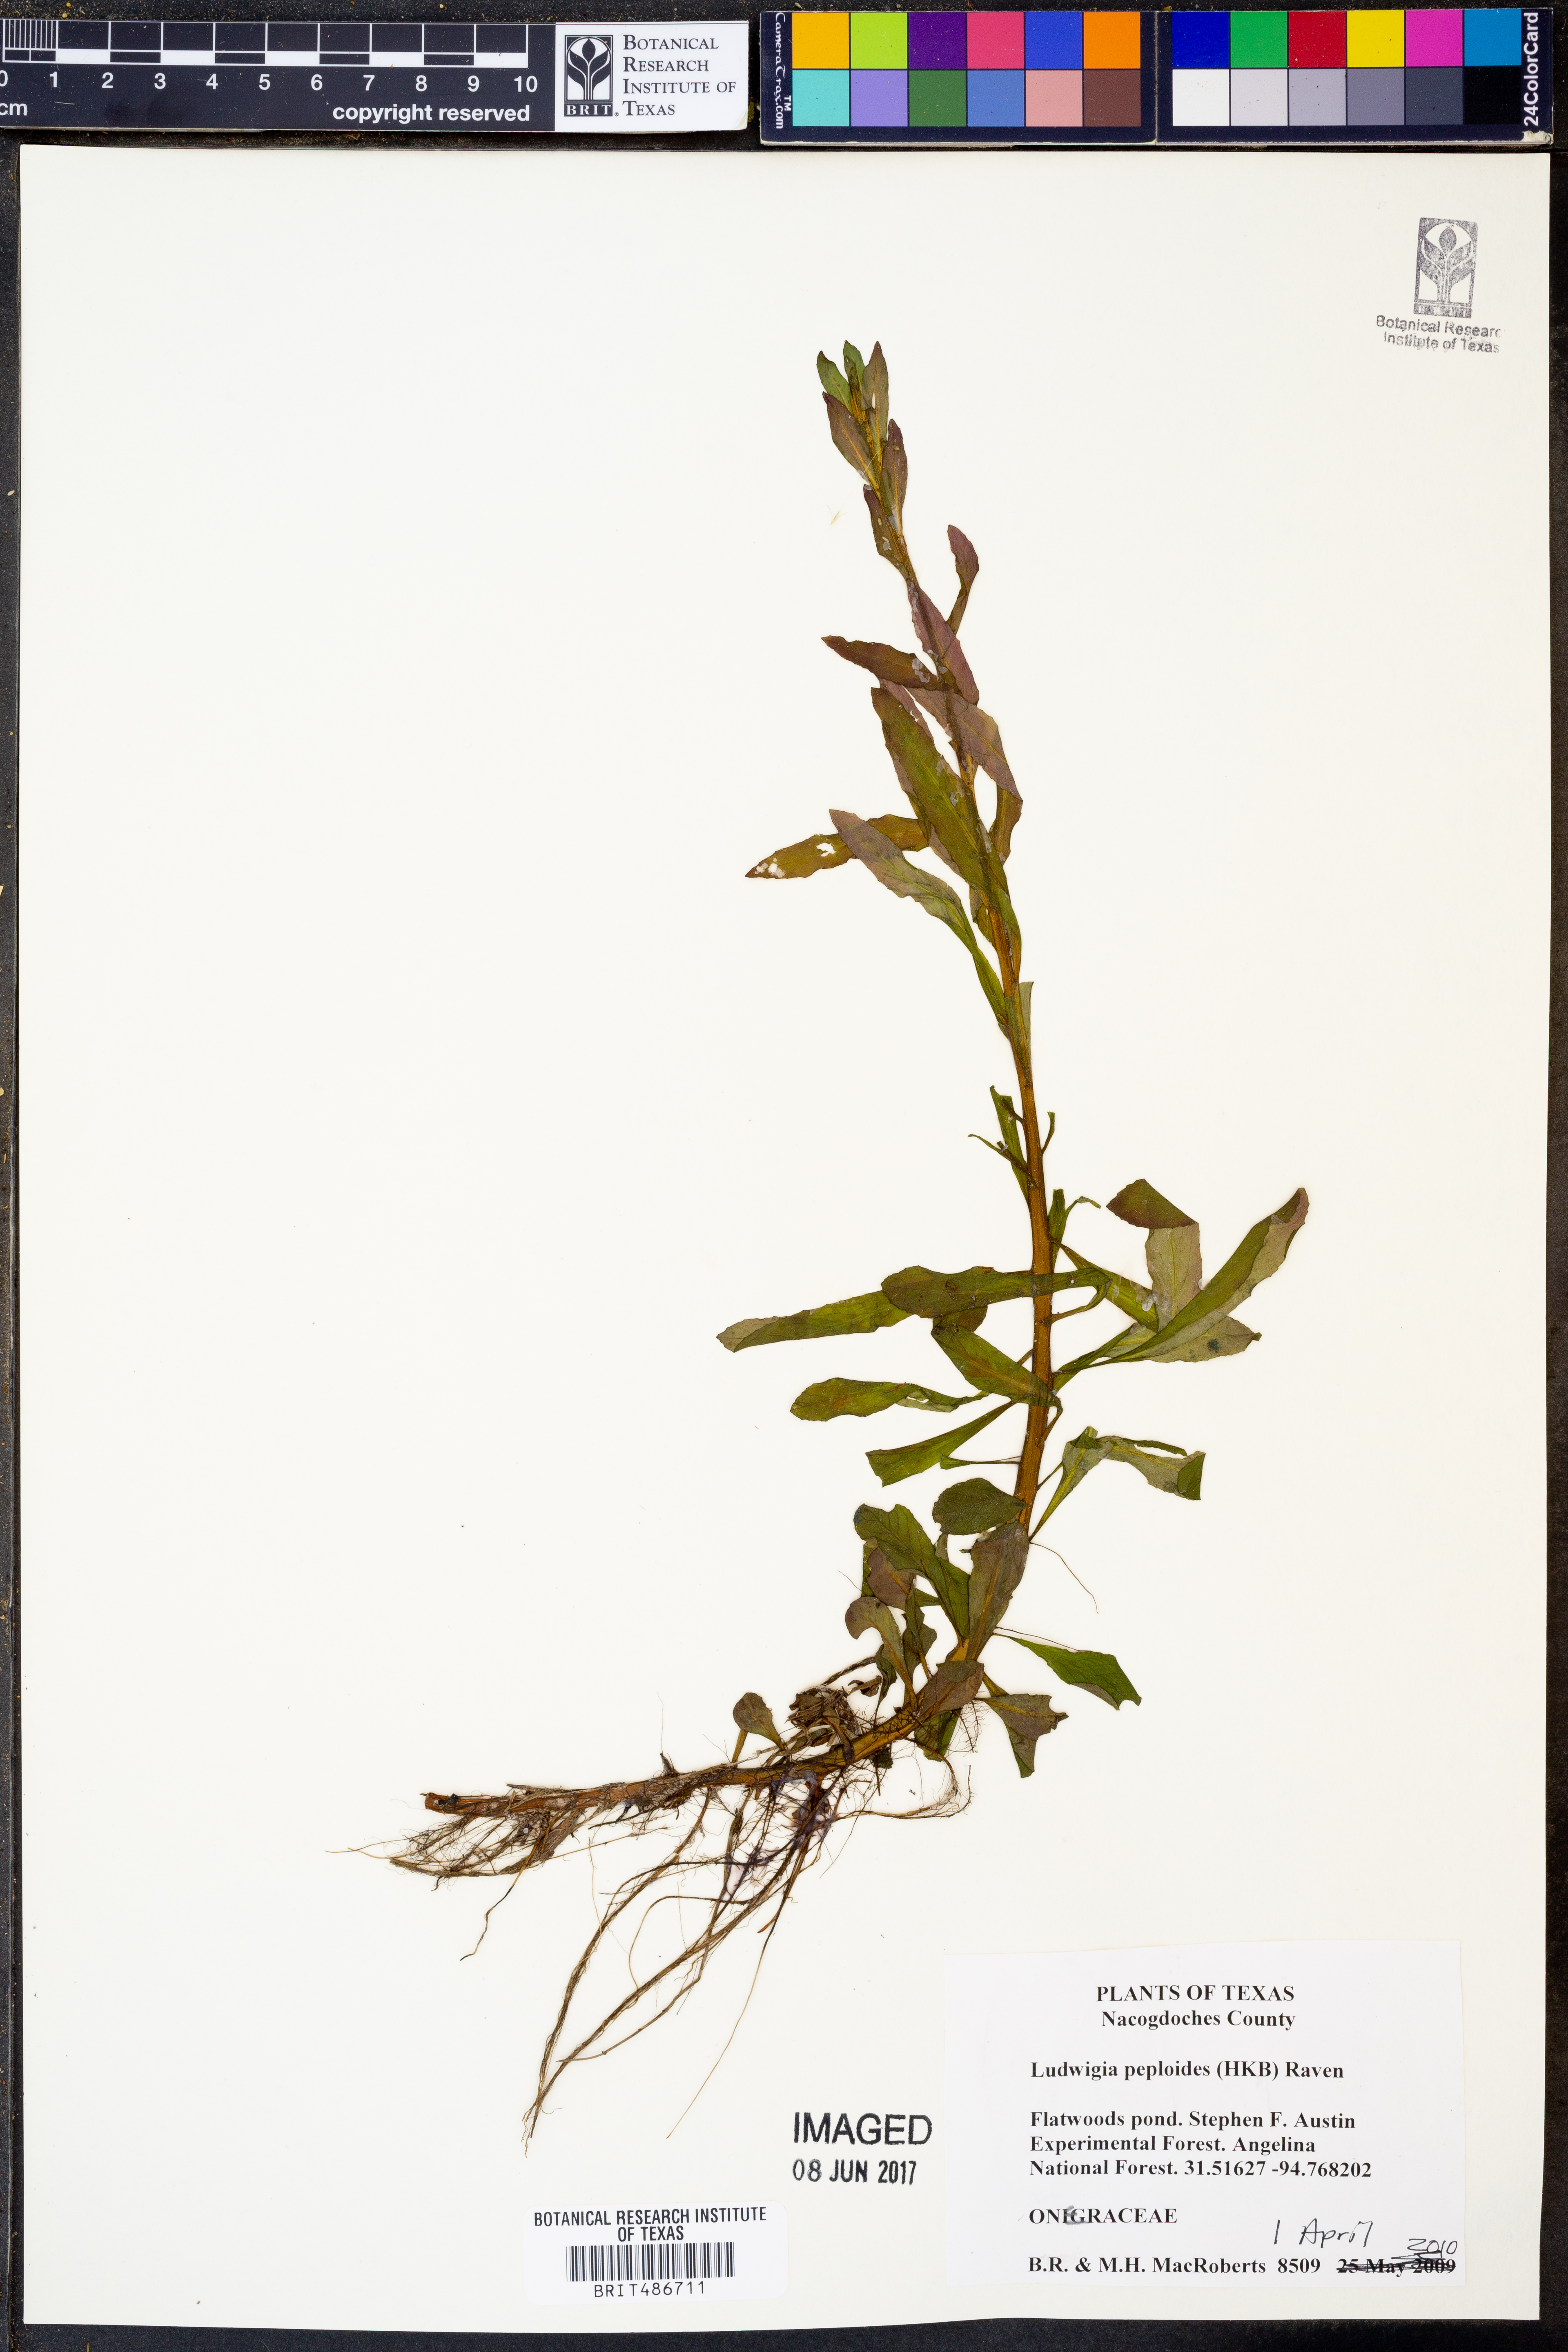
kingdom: Plantae
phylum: Tracheophyta
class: Magnoliopsida
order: Myrtales
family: Onagraceae
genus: Ludwigia
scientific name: Ludwigia peploides
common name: Floating primrose-willow
